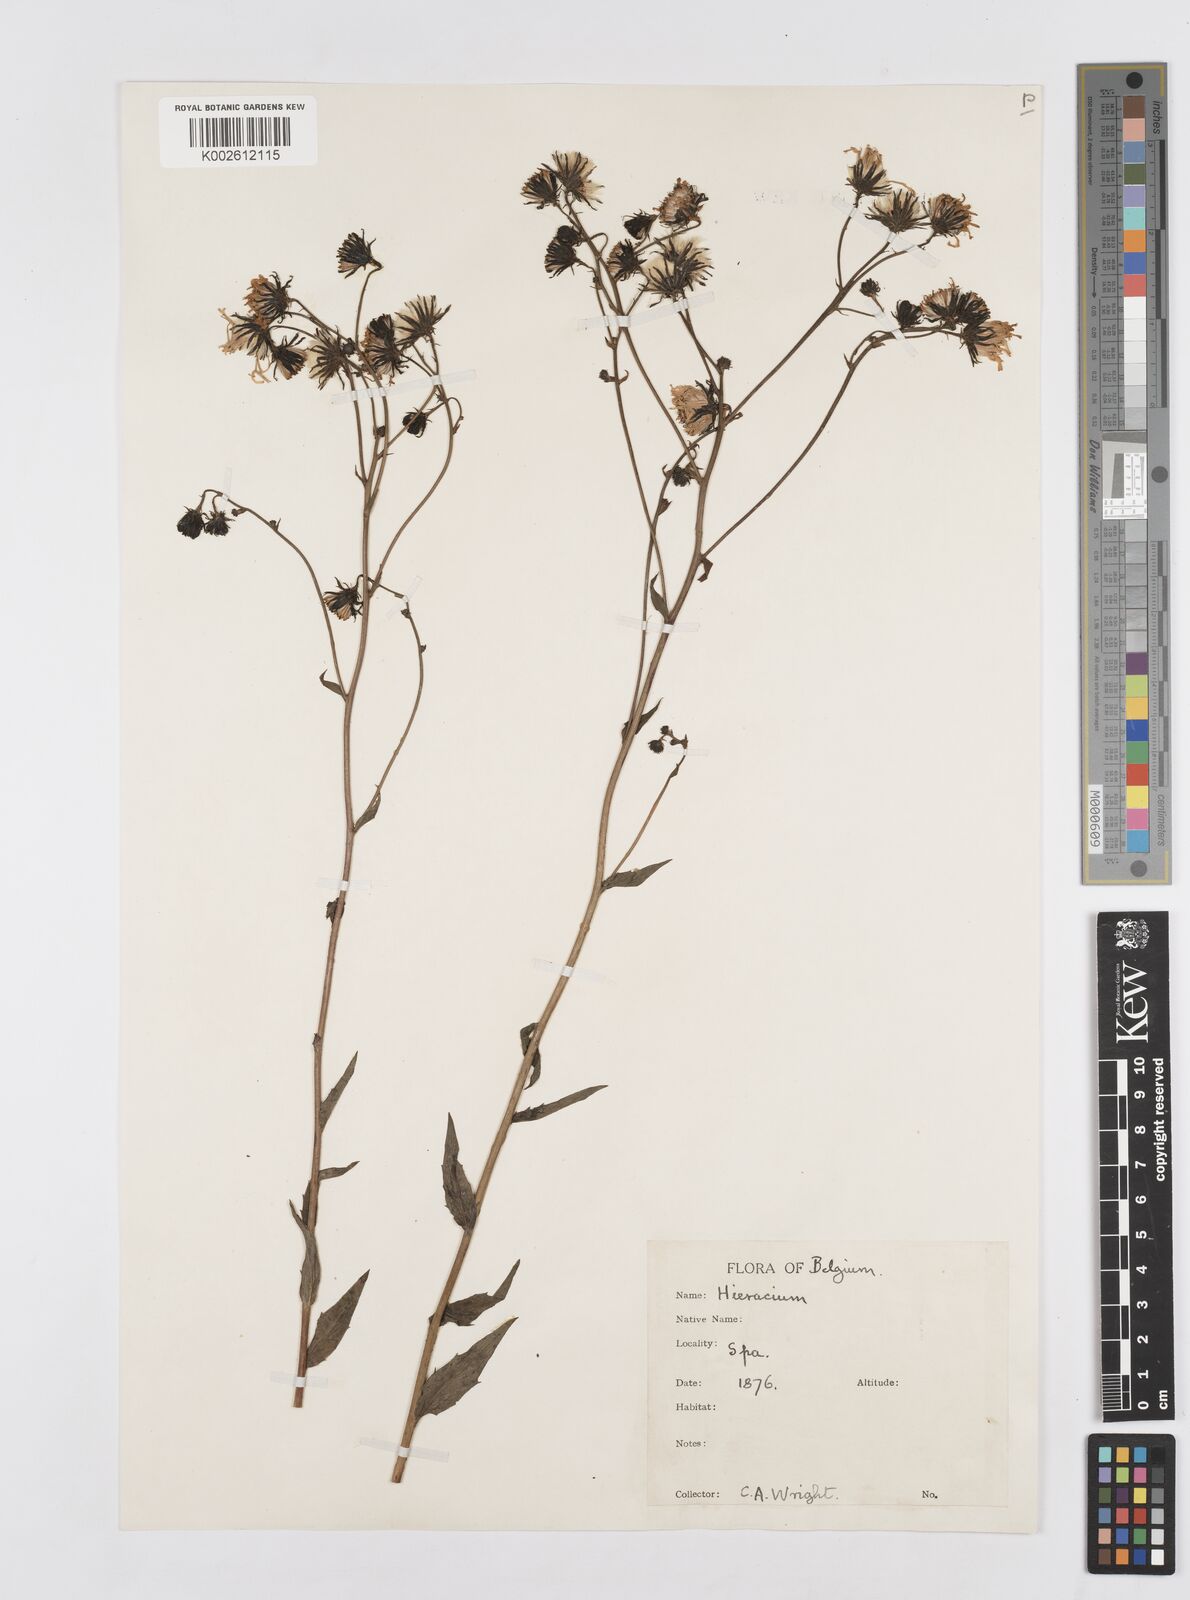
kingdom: Plantae
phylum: Tracheophyta
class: Magnoliopsida
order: Asterales
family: Asteraceae
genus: Hieracium
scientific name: Hieracium
